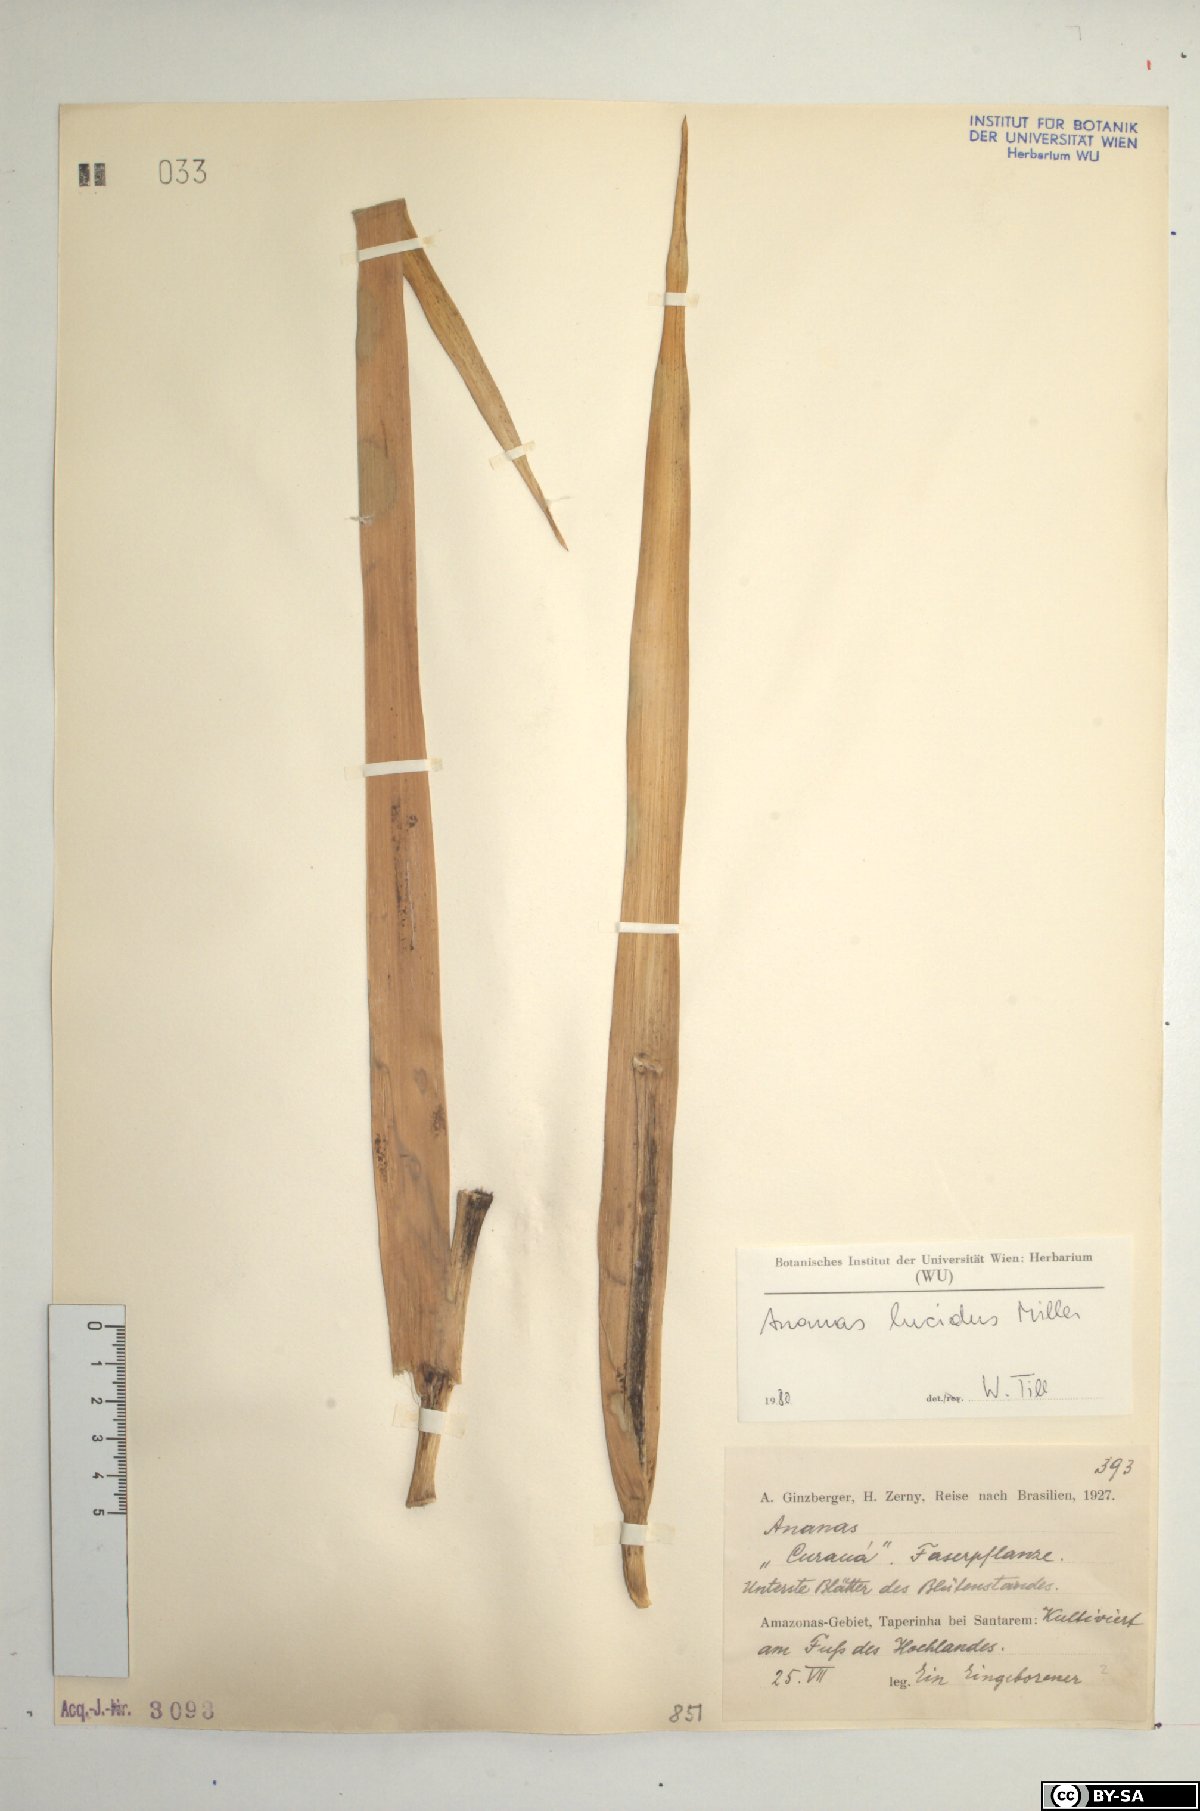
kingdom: Plantae
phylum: Tracheophyta
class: Liliopsida
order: Poales
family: Bromeliaceae
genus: Ananas
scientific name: Ananas comosus
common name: Pineapple
